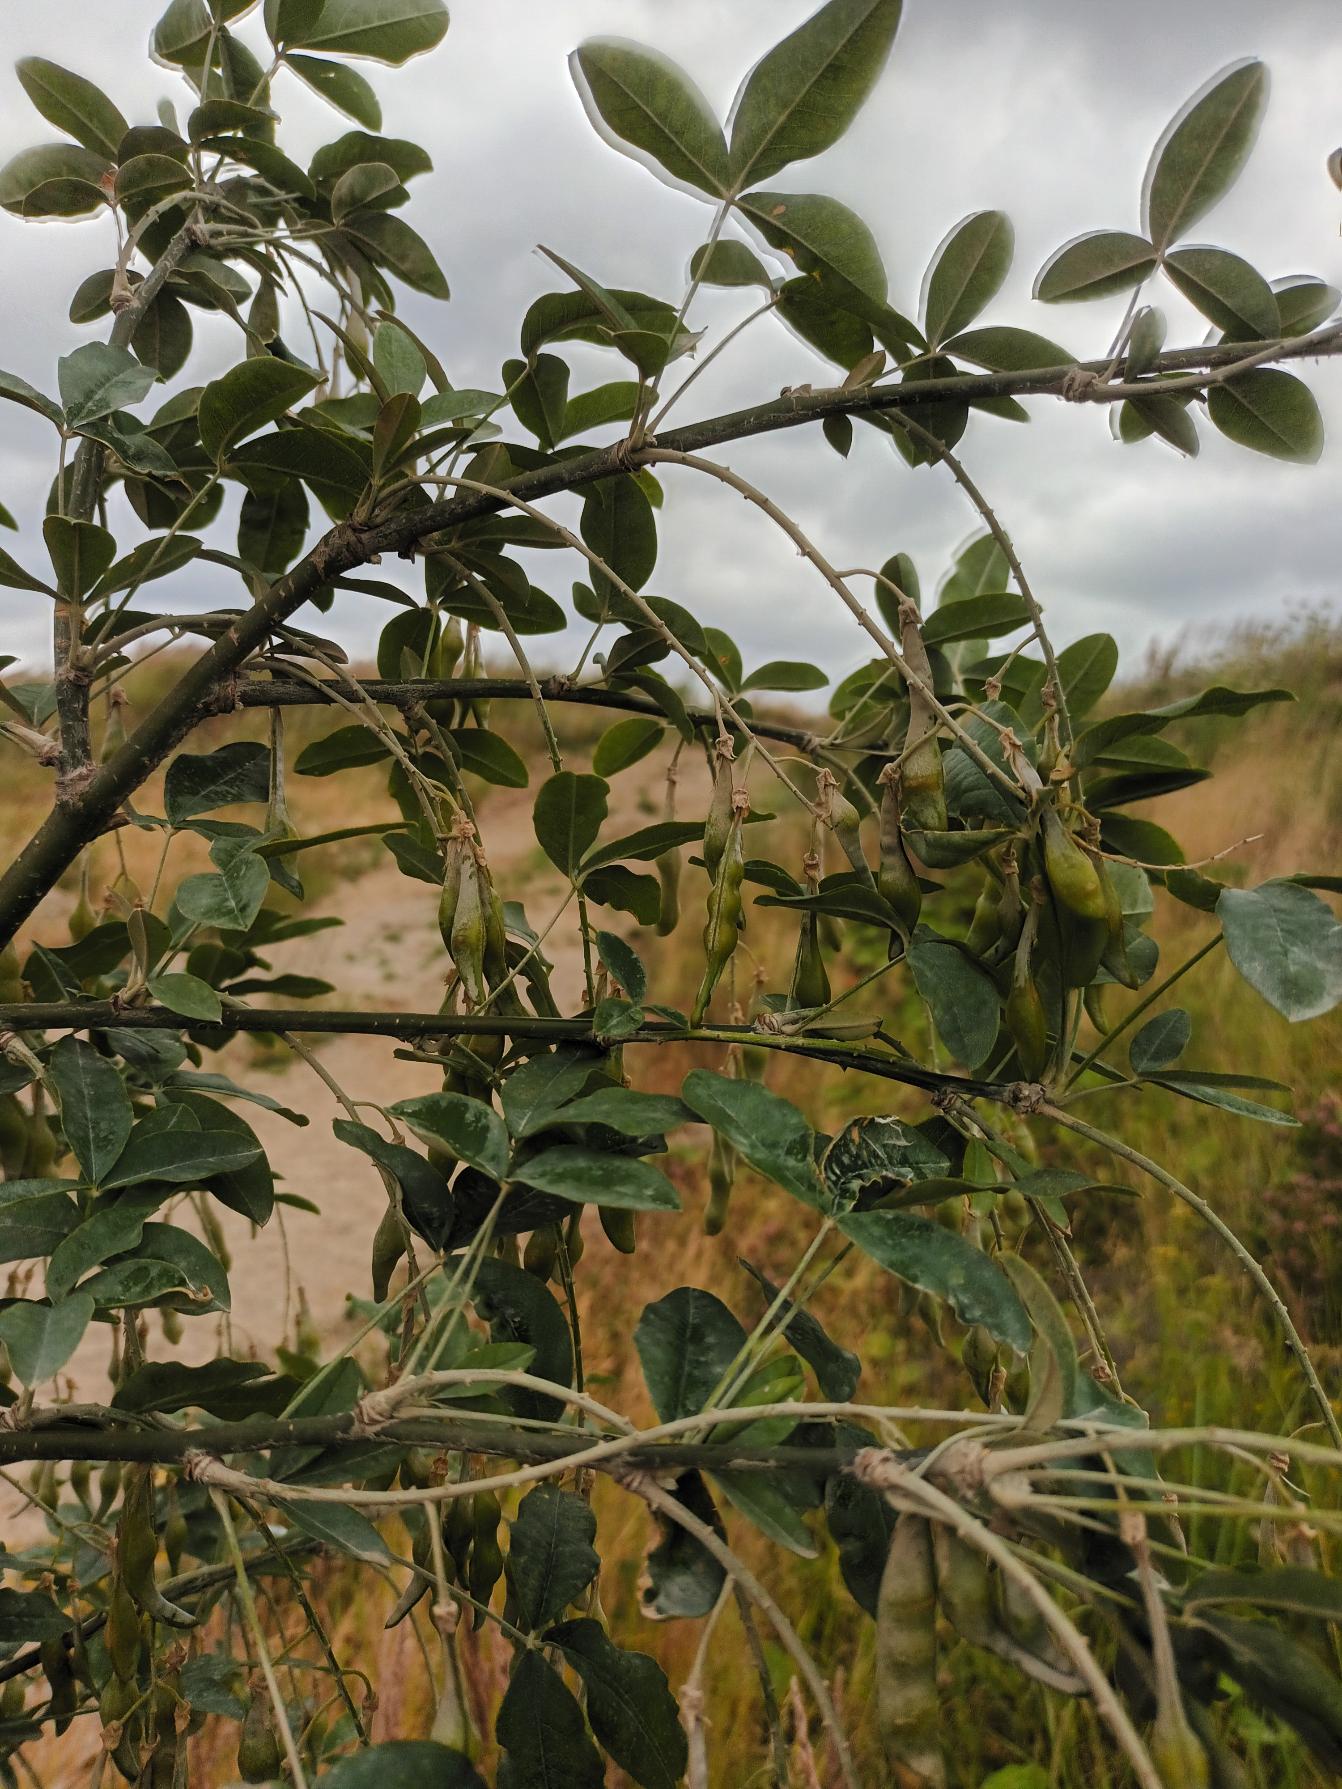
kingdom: Plantae
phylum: Tracheophyta
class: Magnoliopsida
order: Fabales
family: Fabaceae
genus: Laburnum
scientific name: Laburnum watereri
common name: Hybrid-guldregn
